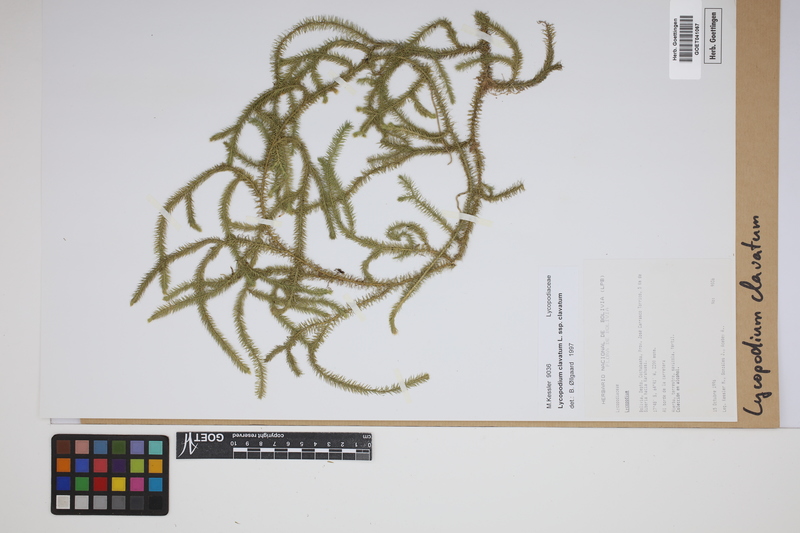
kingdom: Plantae
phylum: Tracheophyta
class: Lycopodiopsida
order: Lycopodiales
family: Lycopodiaceae
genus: Lycopodium
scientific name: Lycopodium clavatum
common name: Stag's-horn clubmoss
